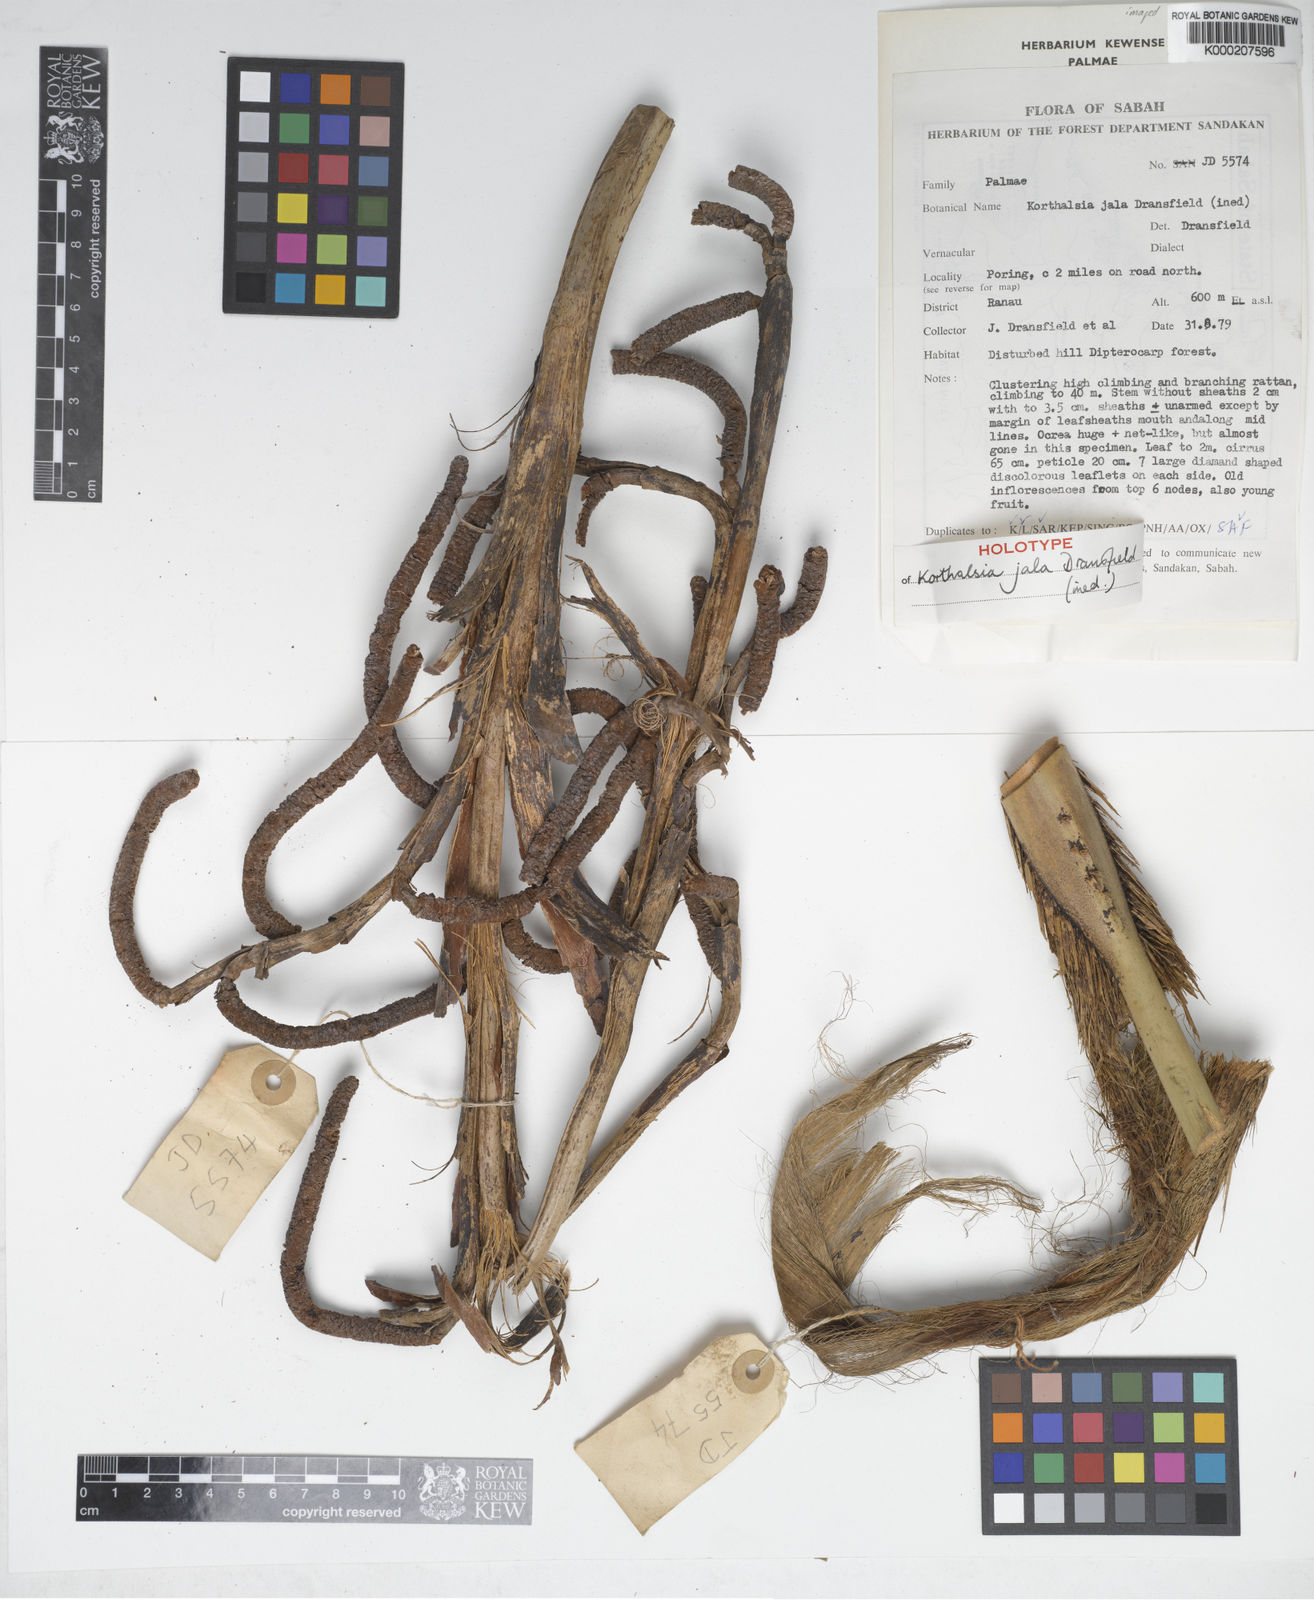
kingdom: Plantae
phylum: Tracheophyta
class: Liliopsida
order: Arecales
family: Arecaceae
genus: Korthalsia
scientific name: Korthalsia jala
